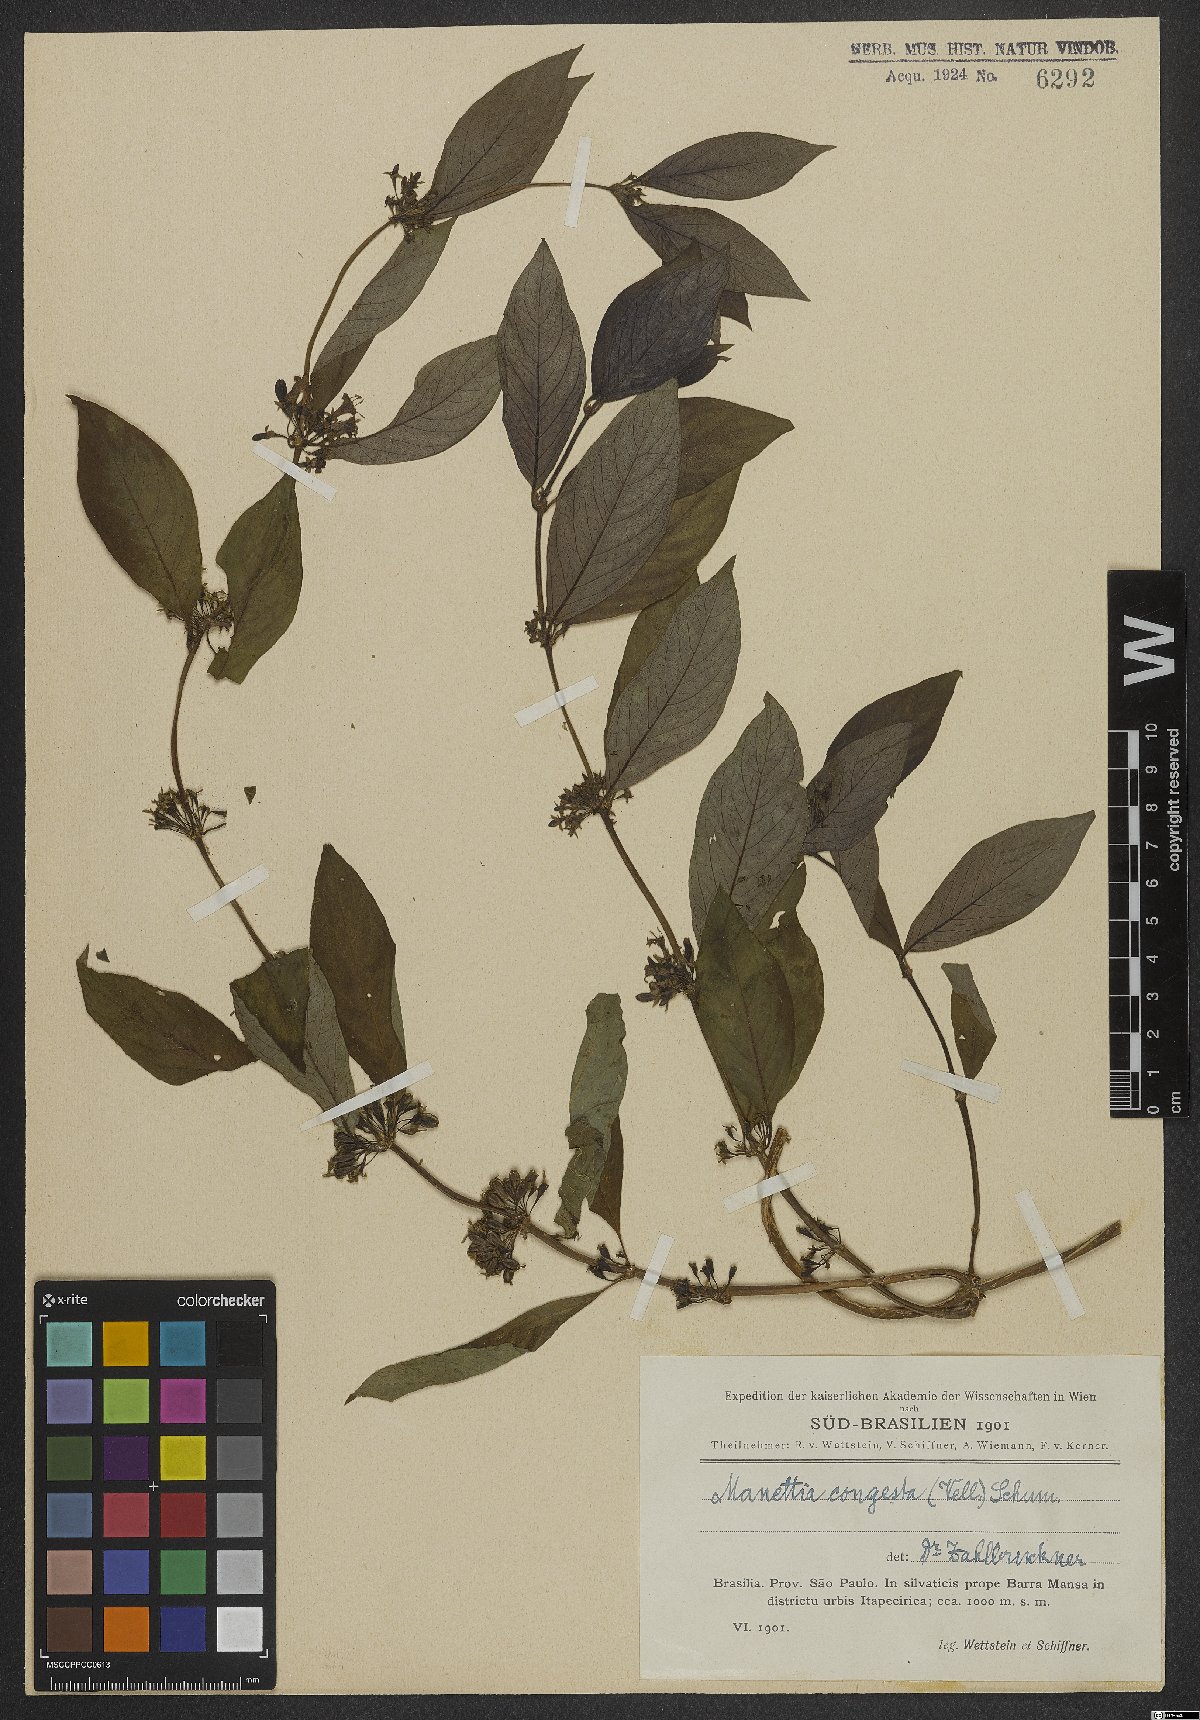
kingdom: Plantae
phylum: Tracheophyta
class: Magnoliopsida
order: Gentianales
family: Rubiaceae
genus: Manettia
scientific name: Manettia congesta
